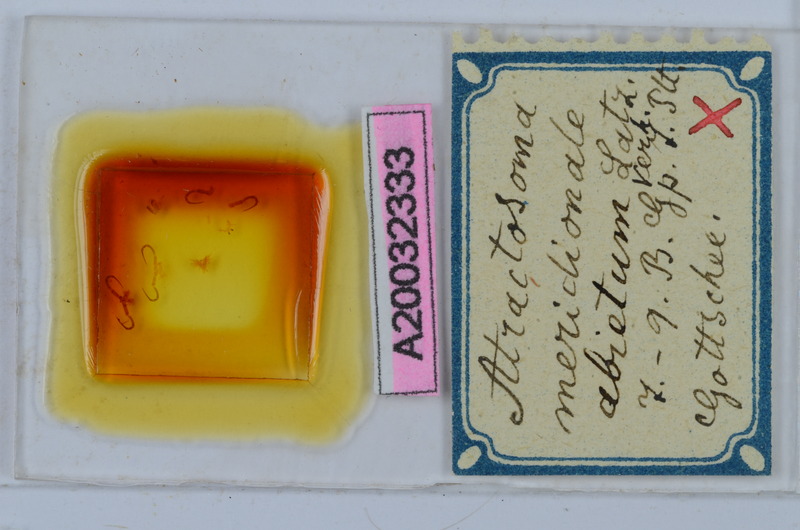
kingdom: Animalia
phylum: Arthropoda
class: Diplopoda
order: Chordeumatida
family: Craspedosomatidae
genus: Atractosoma
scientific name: Atractosoma meridionale
